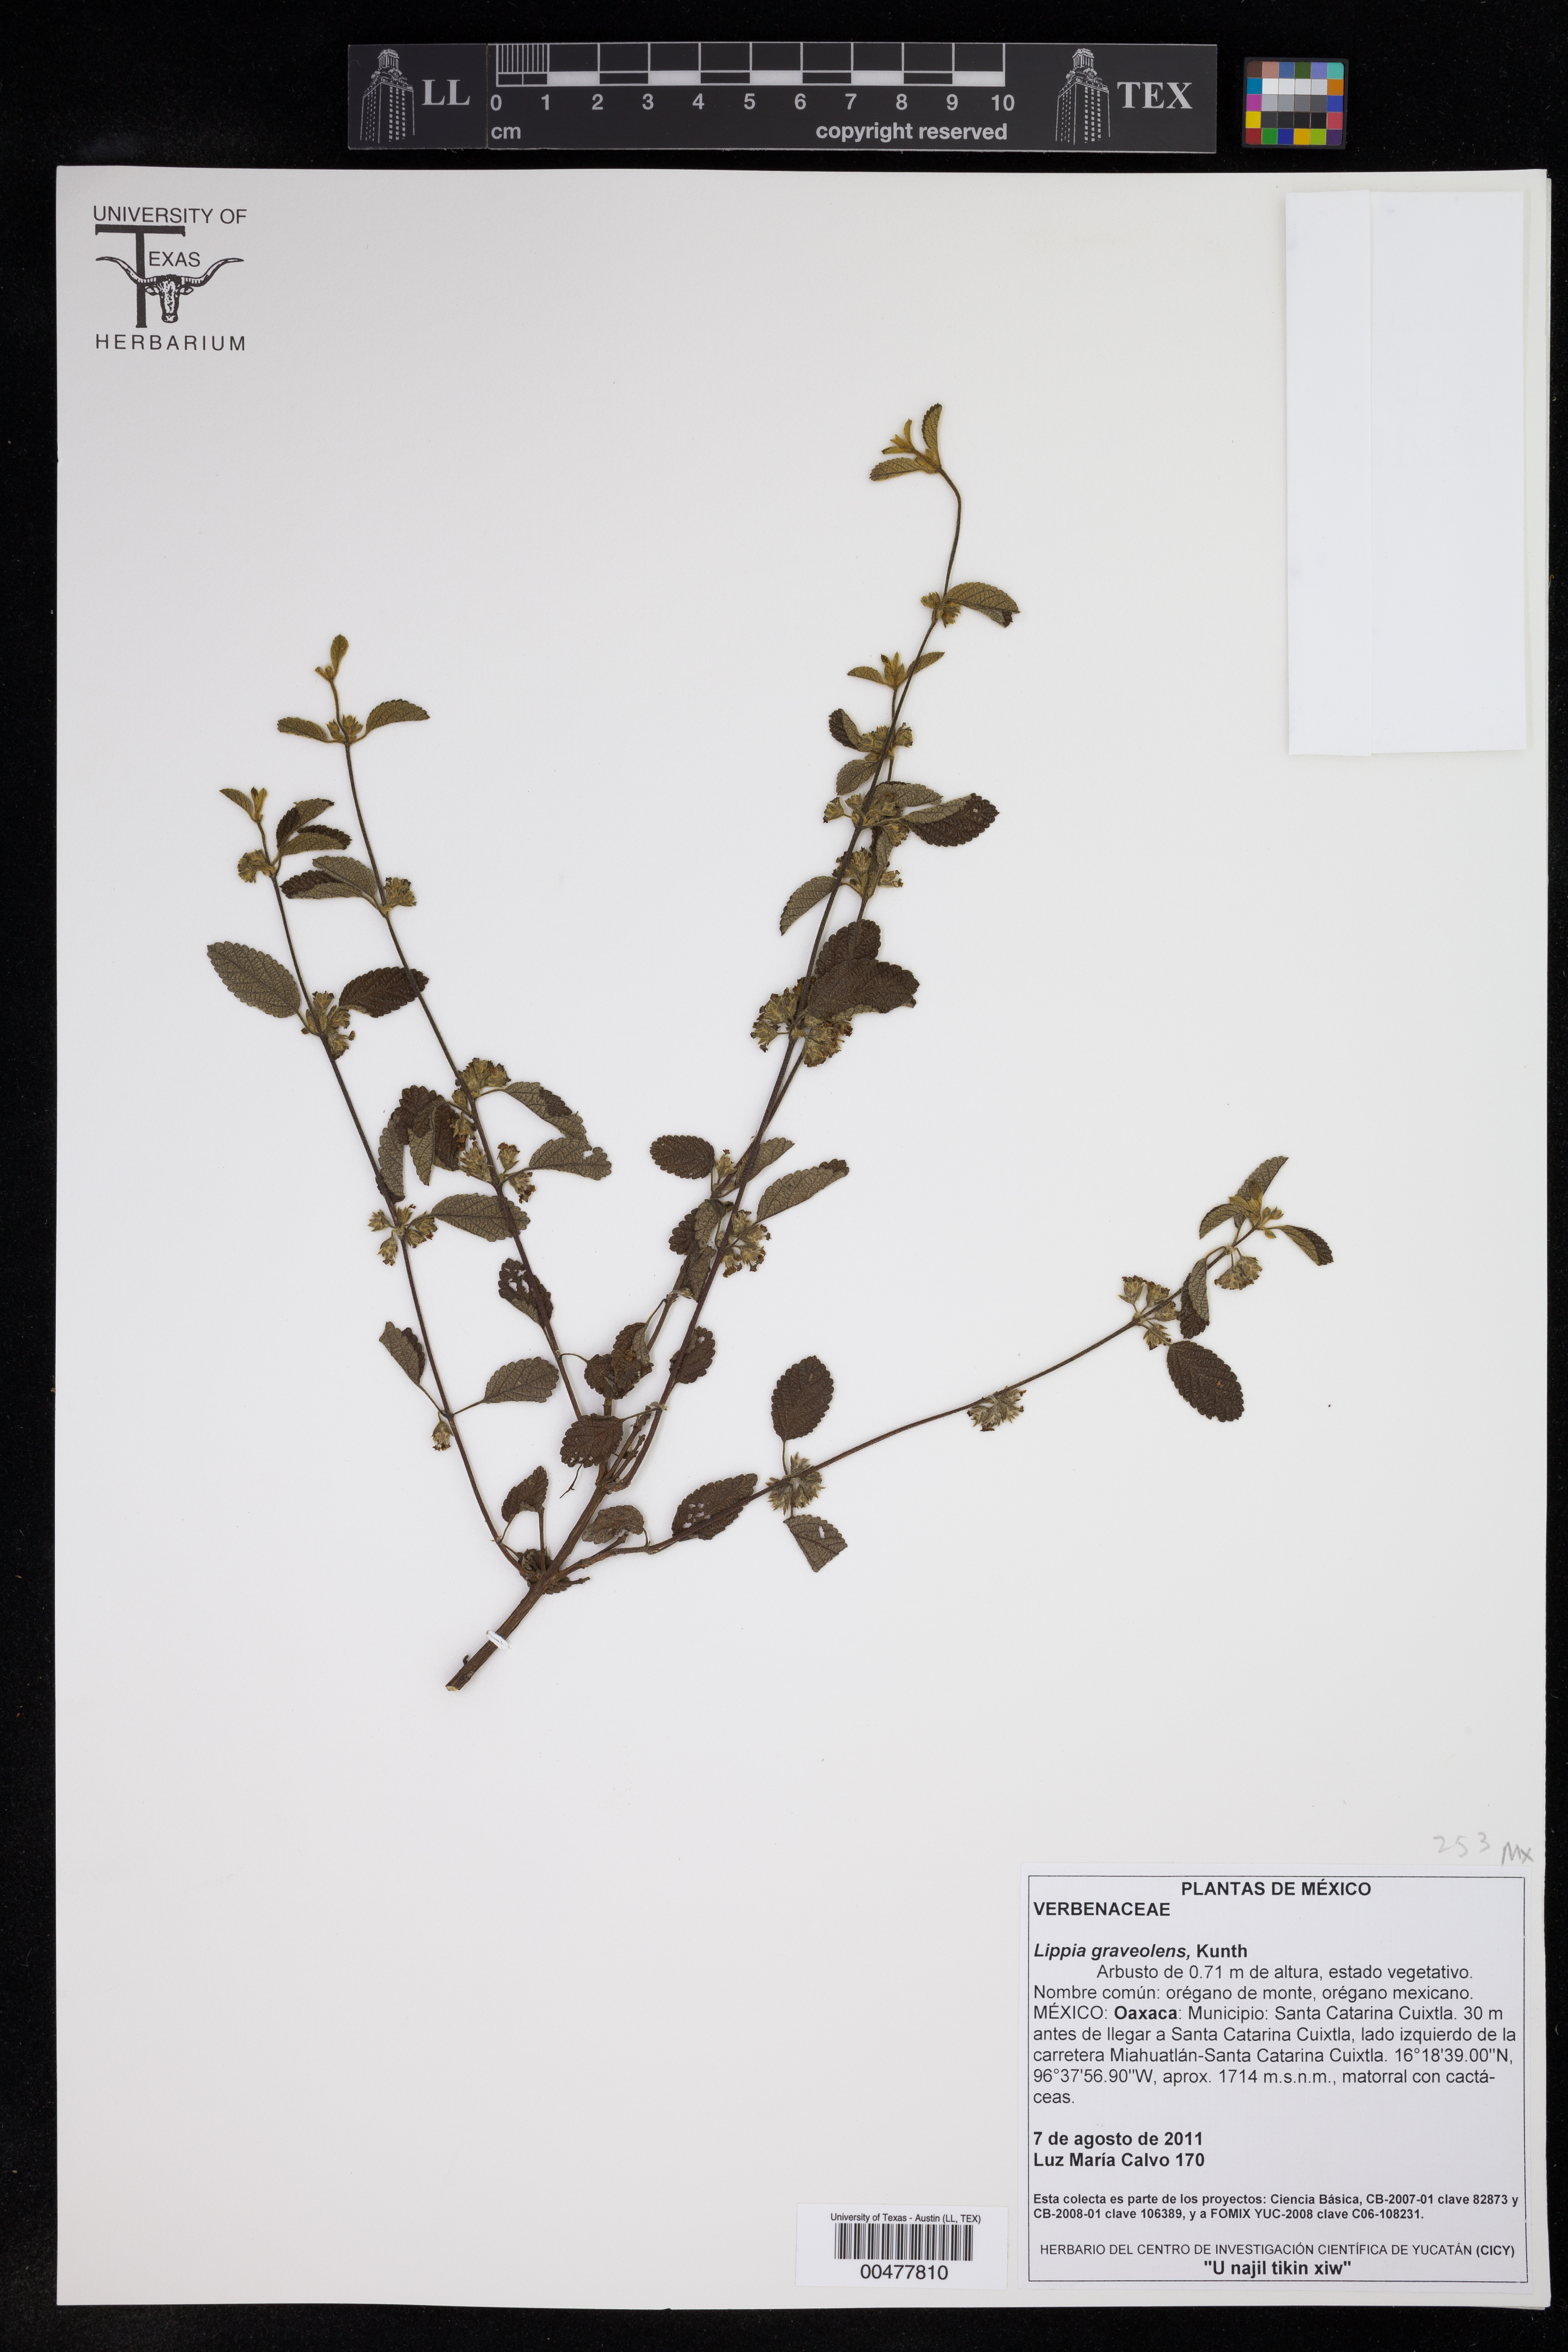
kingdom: Plantae
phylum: Tracheophyta
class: Magnoliopsida
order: Lamiales
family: Verbenaceae
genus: Lippia
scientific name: Lippia origanoides
